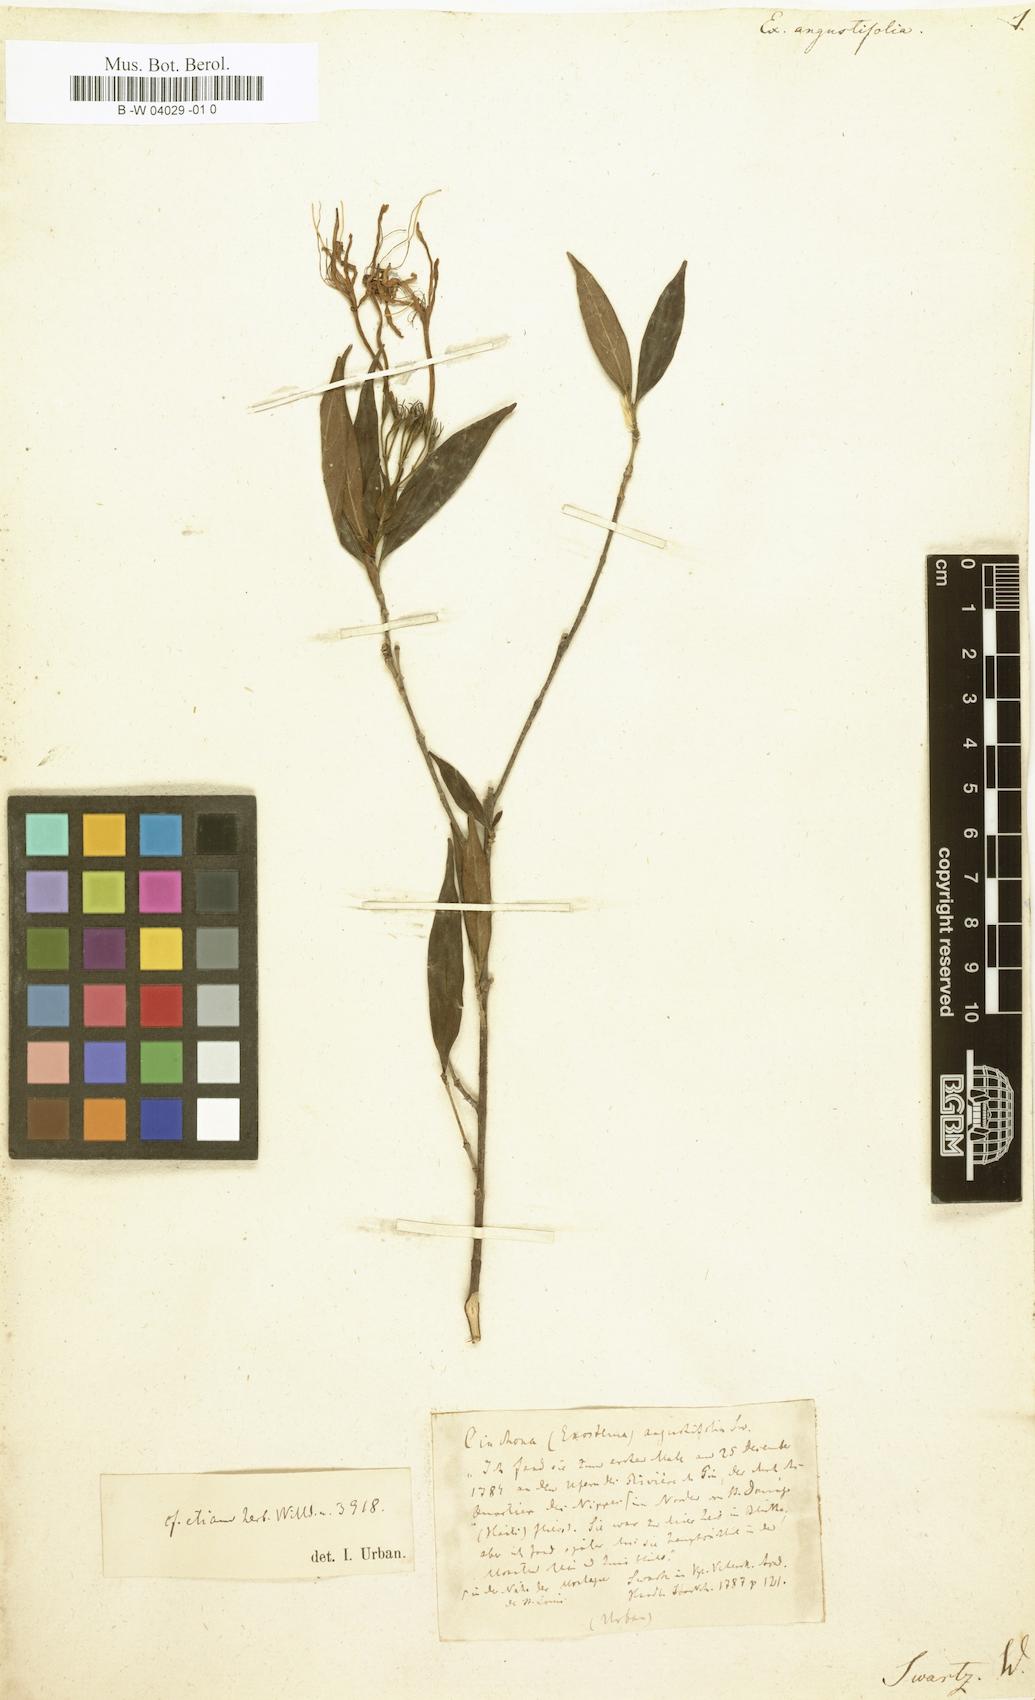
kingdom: Plantae
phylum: Tracheophyta
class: Magnoliopsida
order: Gentianales
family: Rubiaceae
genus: Solenandra
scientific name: Solenandra angustifolia
